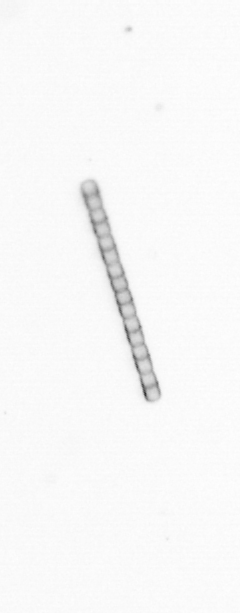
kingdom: Chromista
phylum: Ochrophyta
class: Bacillariophyceae
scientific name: Bacillariophyceae
